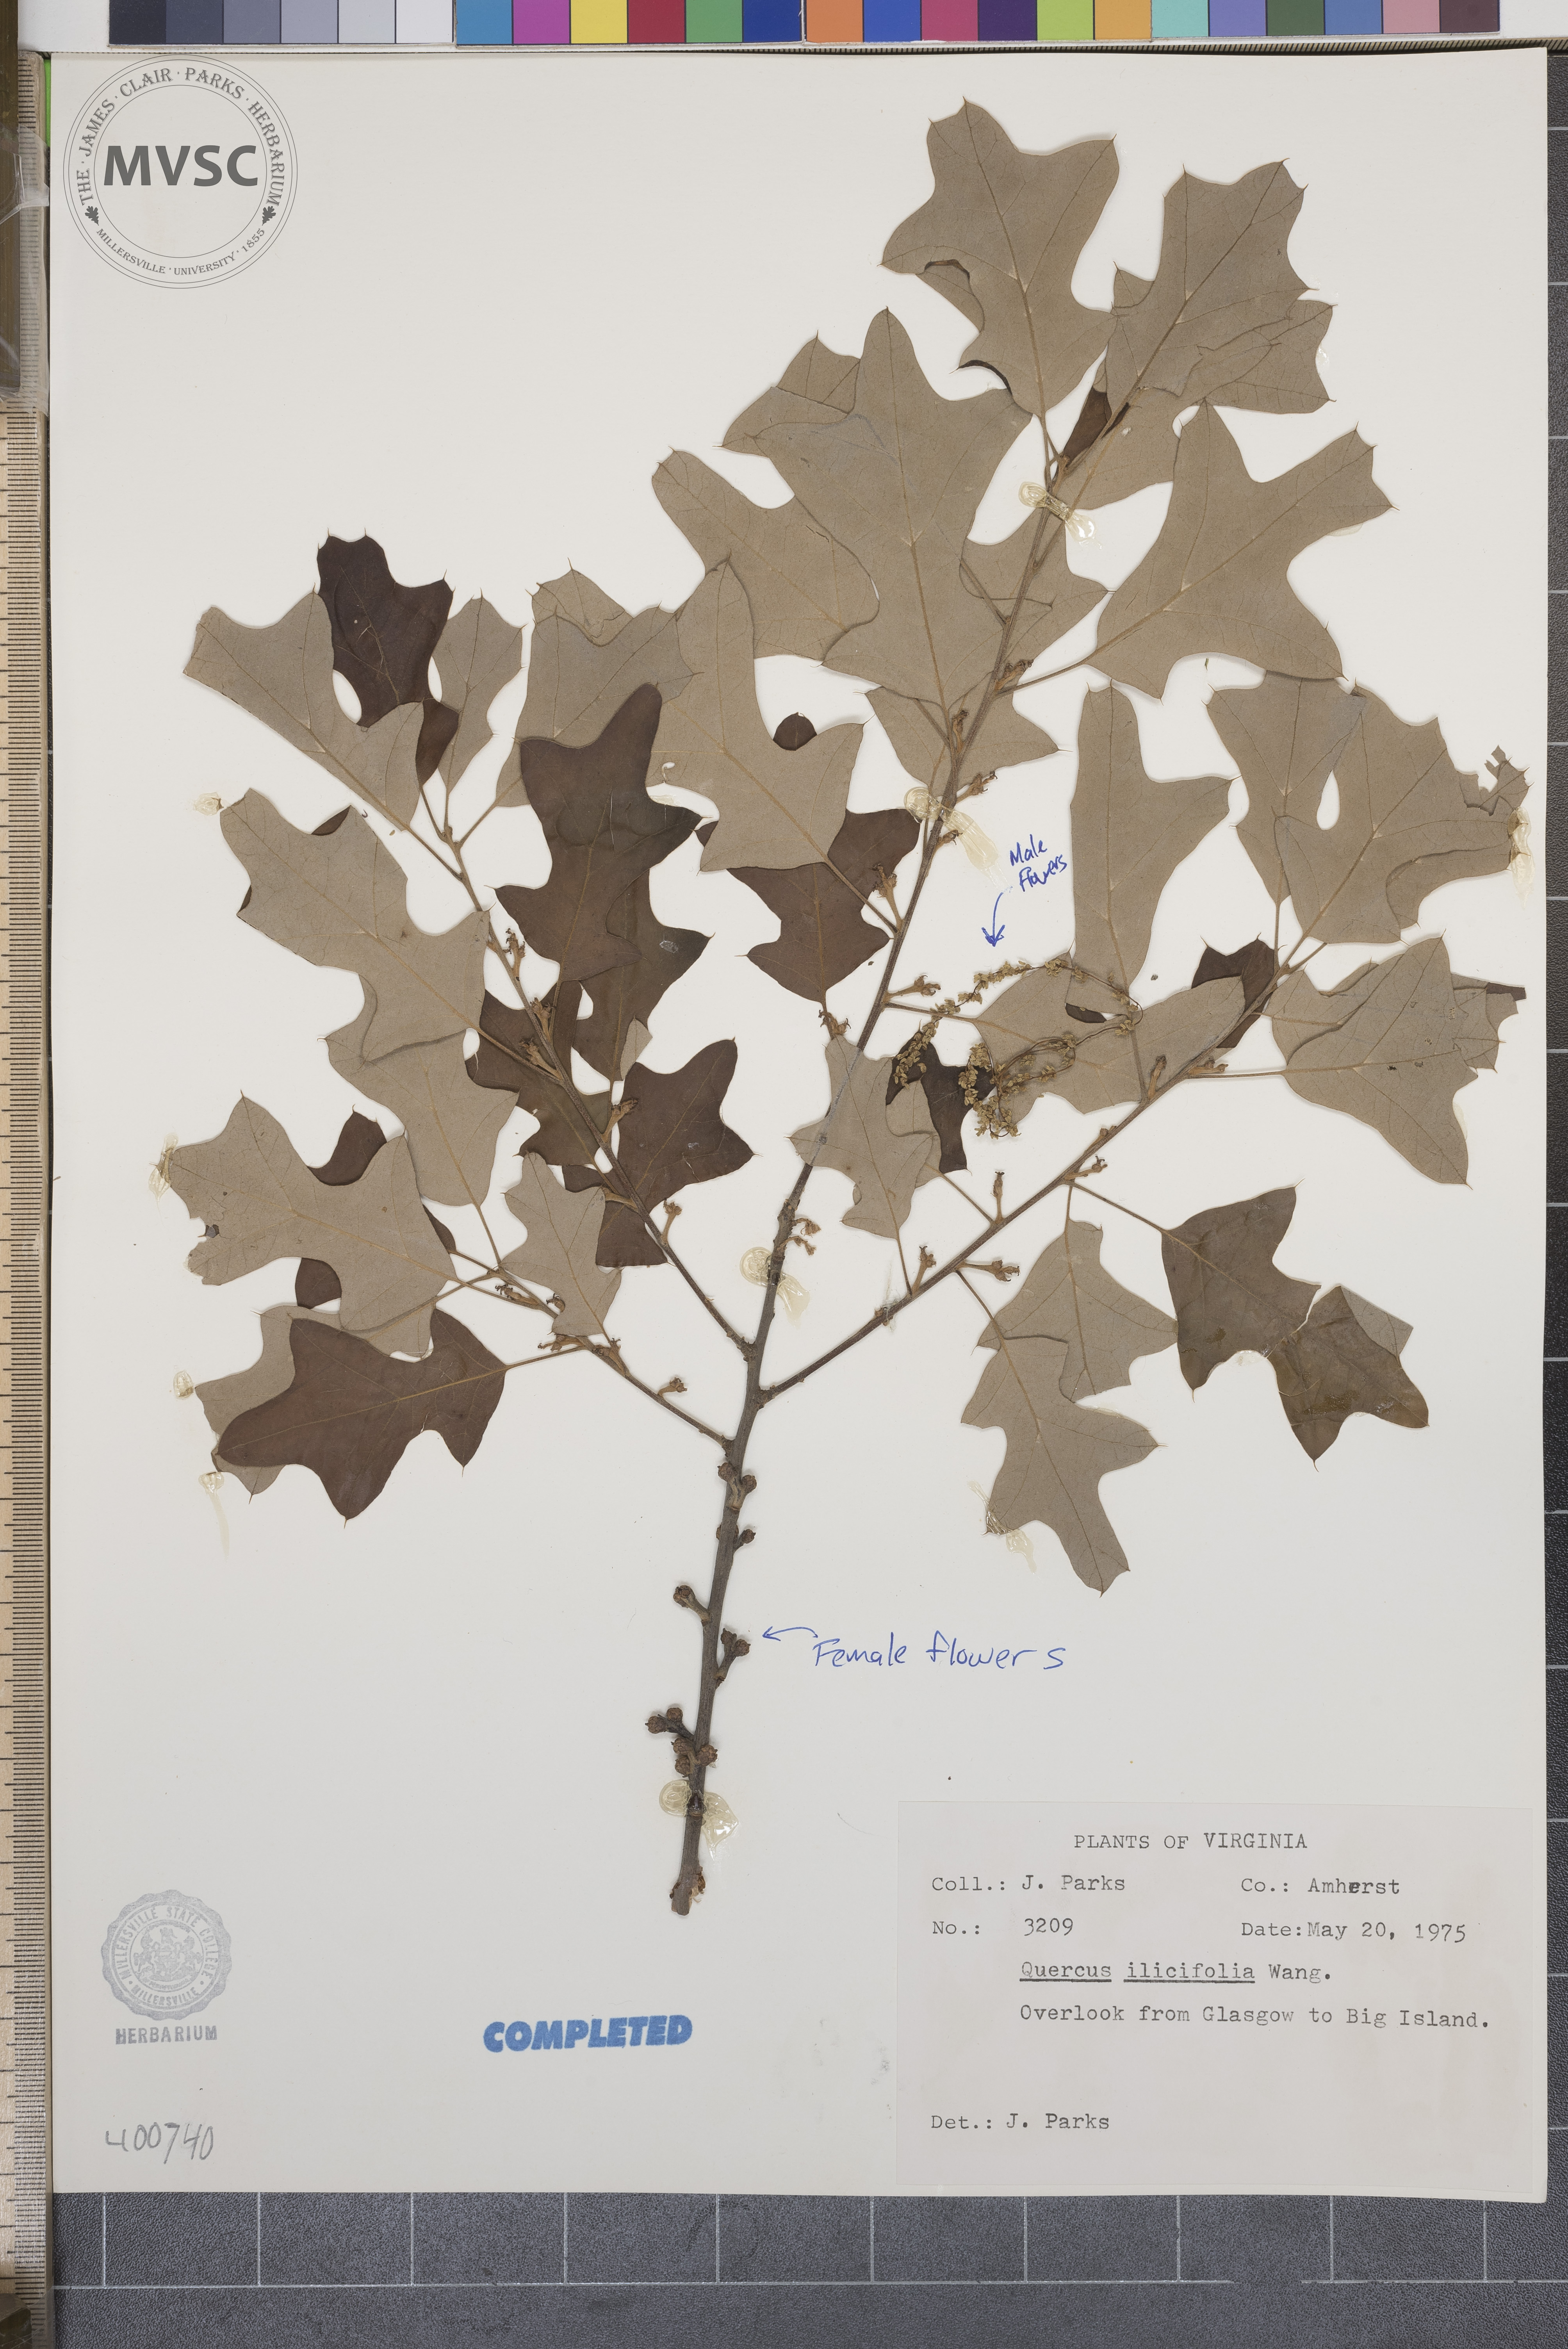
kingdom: Plantae
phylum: Tracheophyta
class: Magnoliopsida
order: Fagales
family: Fagaceae
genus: Quercus
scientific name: Quercus ilicifolia
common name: Bear oak
